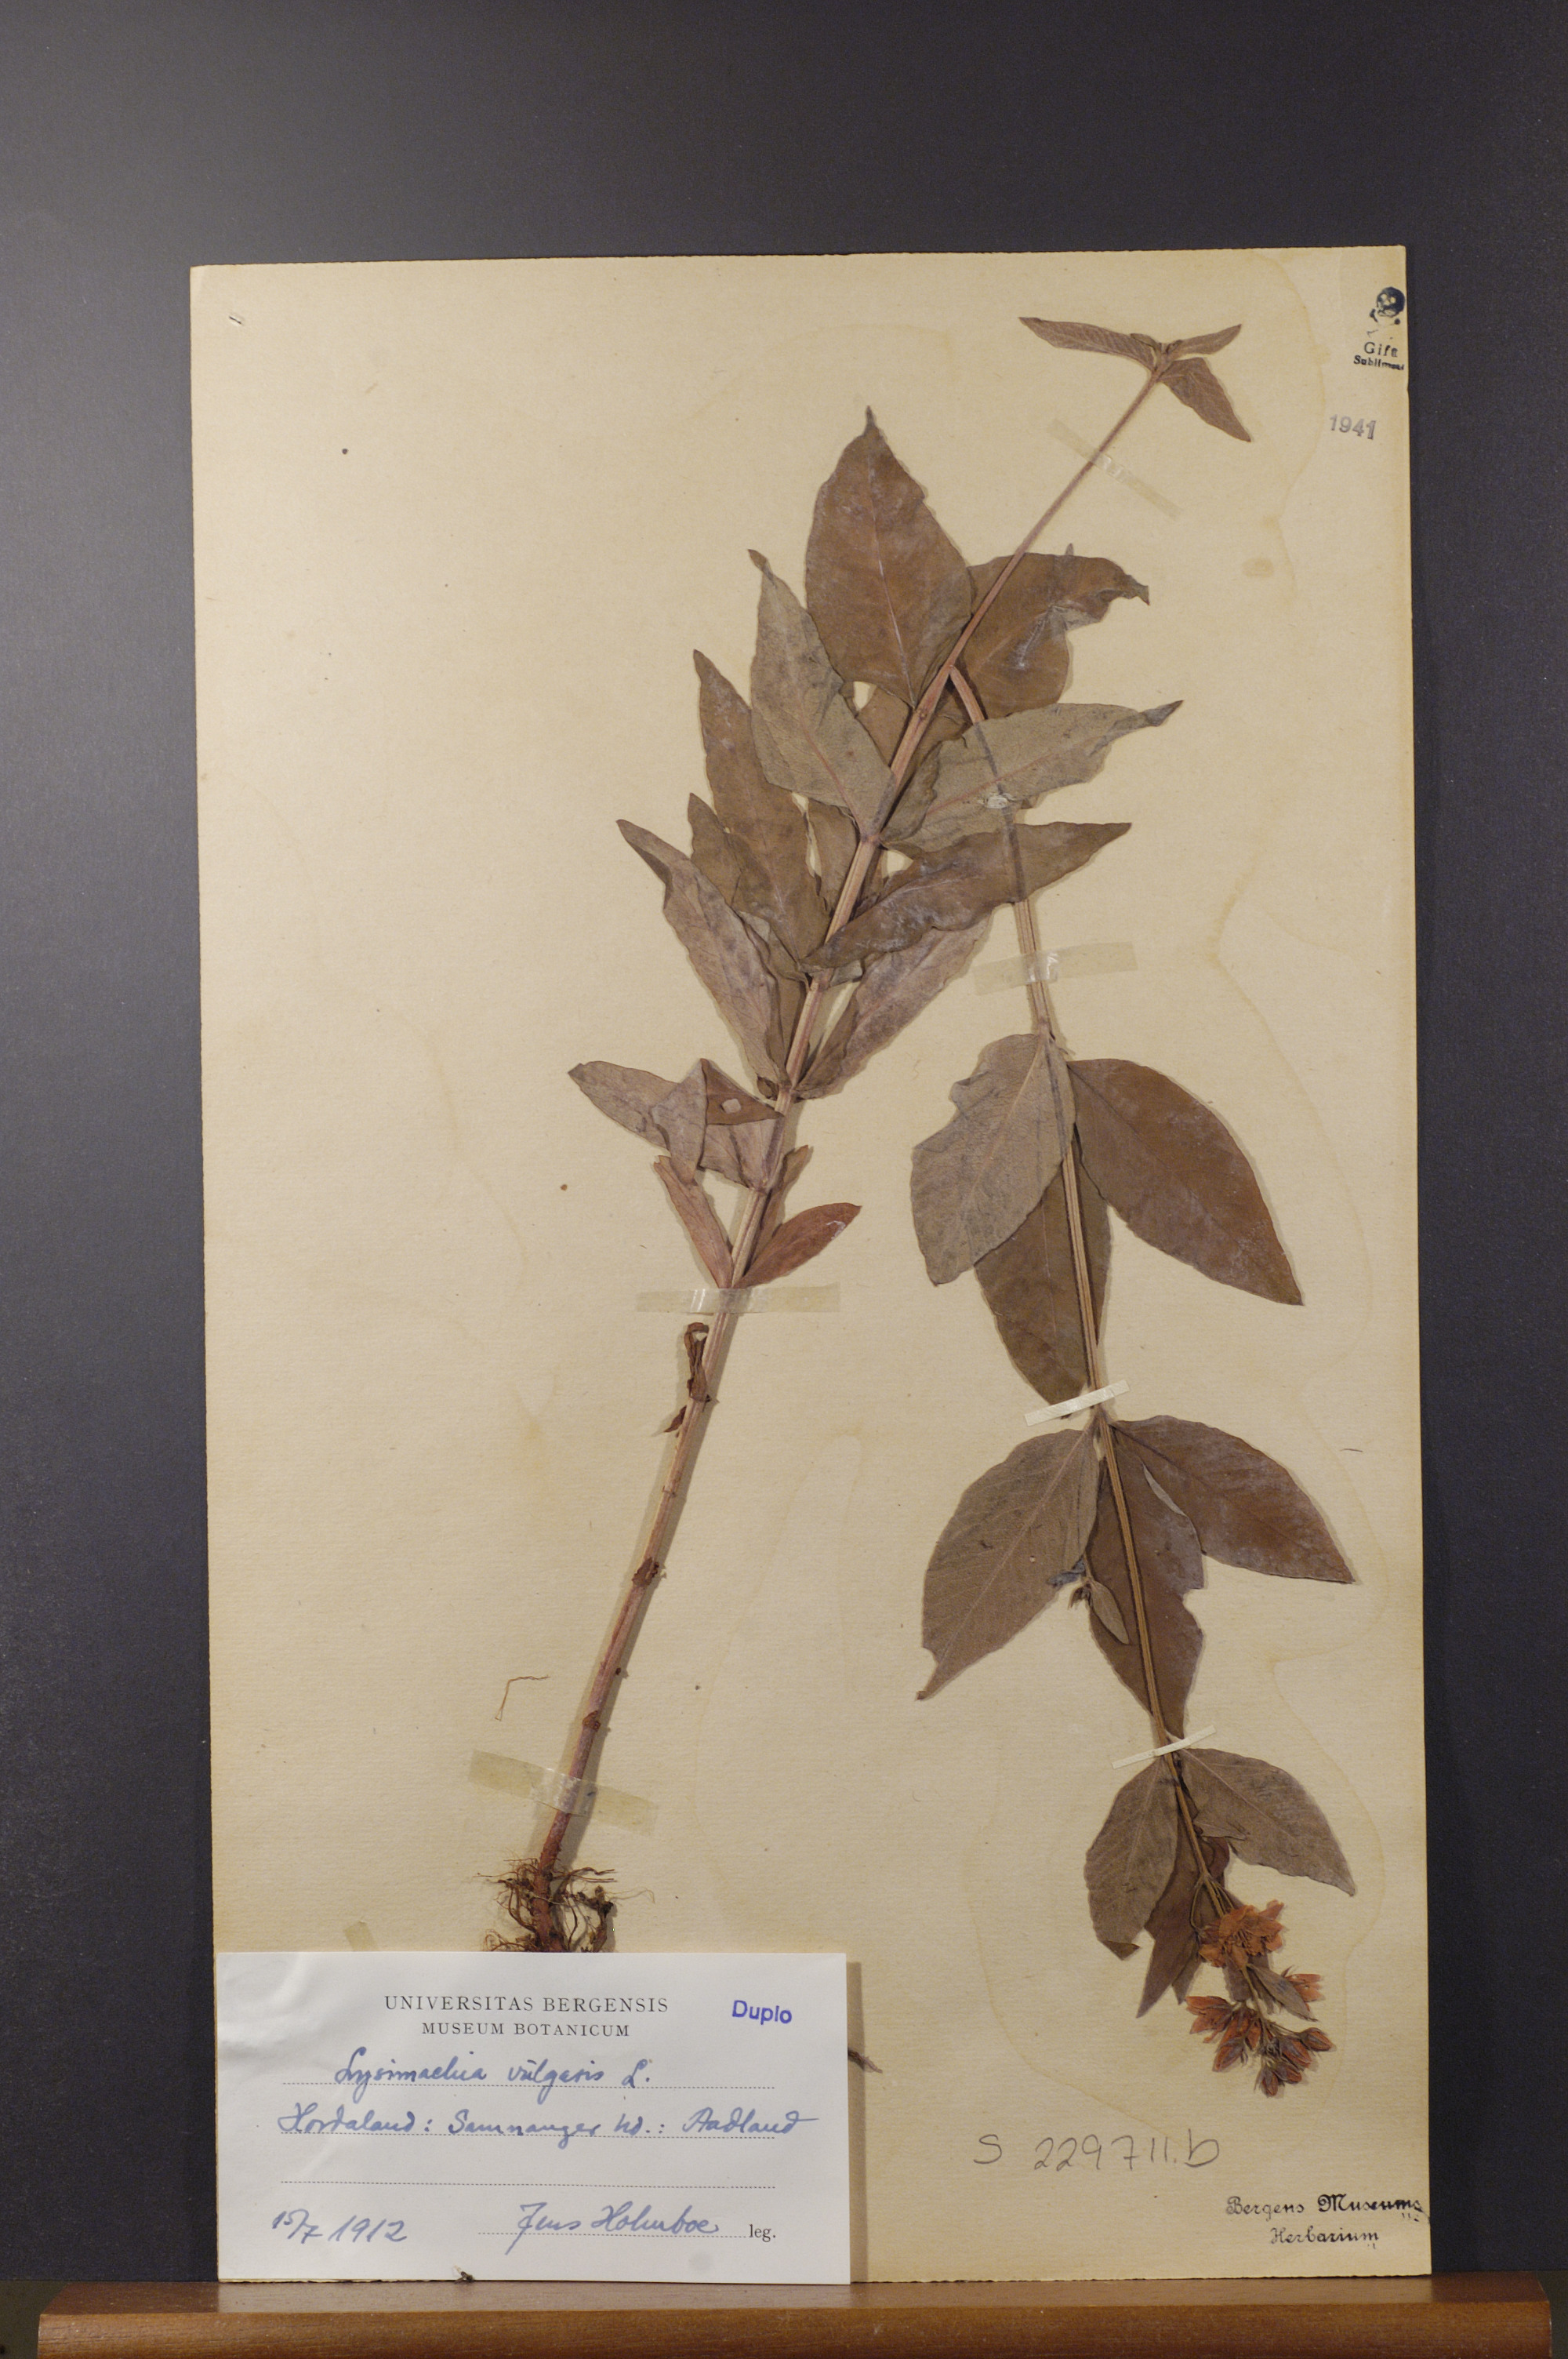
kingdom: Plantae
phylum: Tracheophyta
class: Magnoliopsida
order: Ericales
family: Primulaceae
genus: Lysimachia
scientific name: Lysimachia vulgaris
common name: Yellow loosestrife
